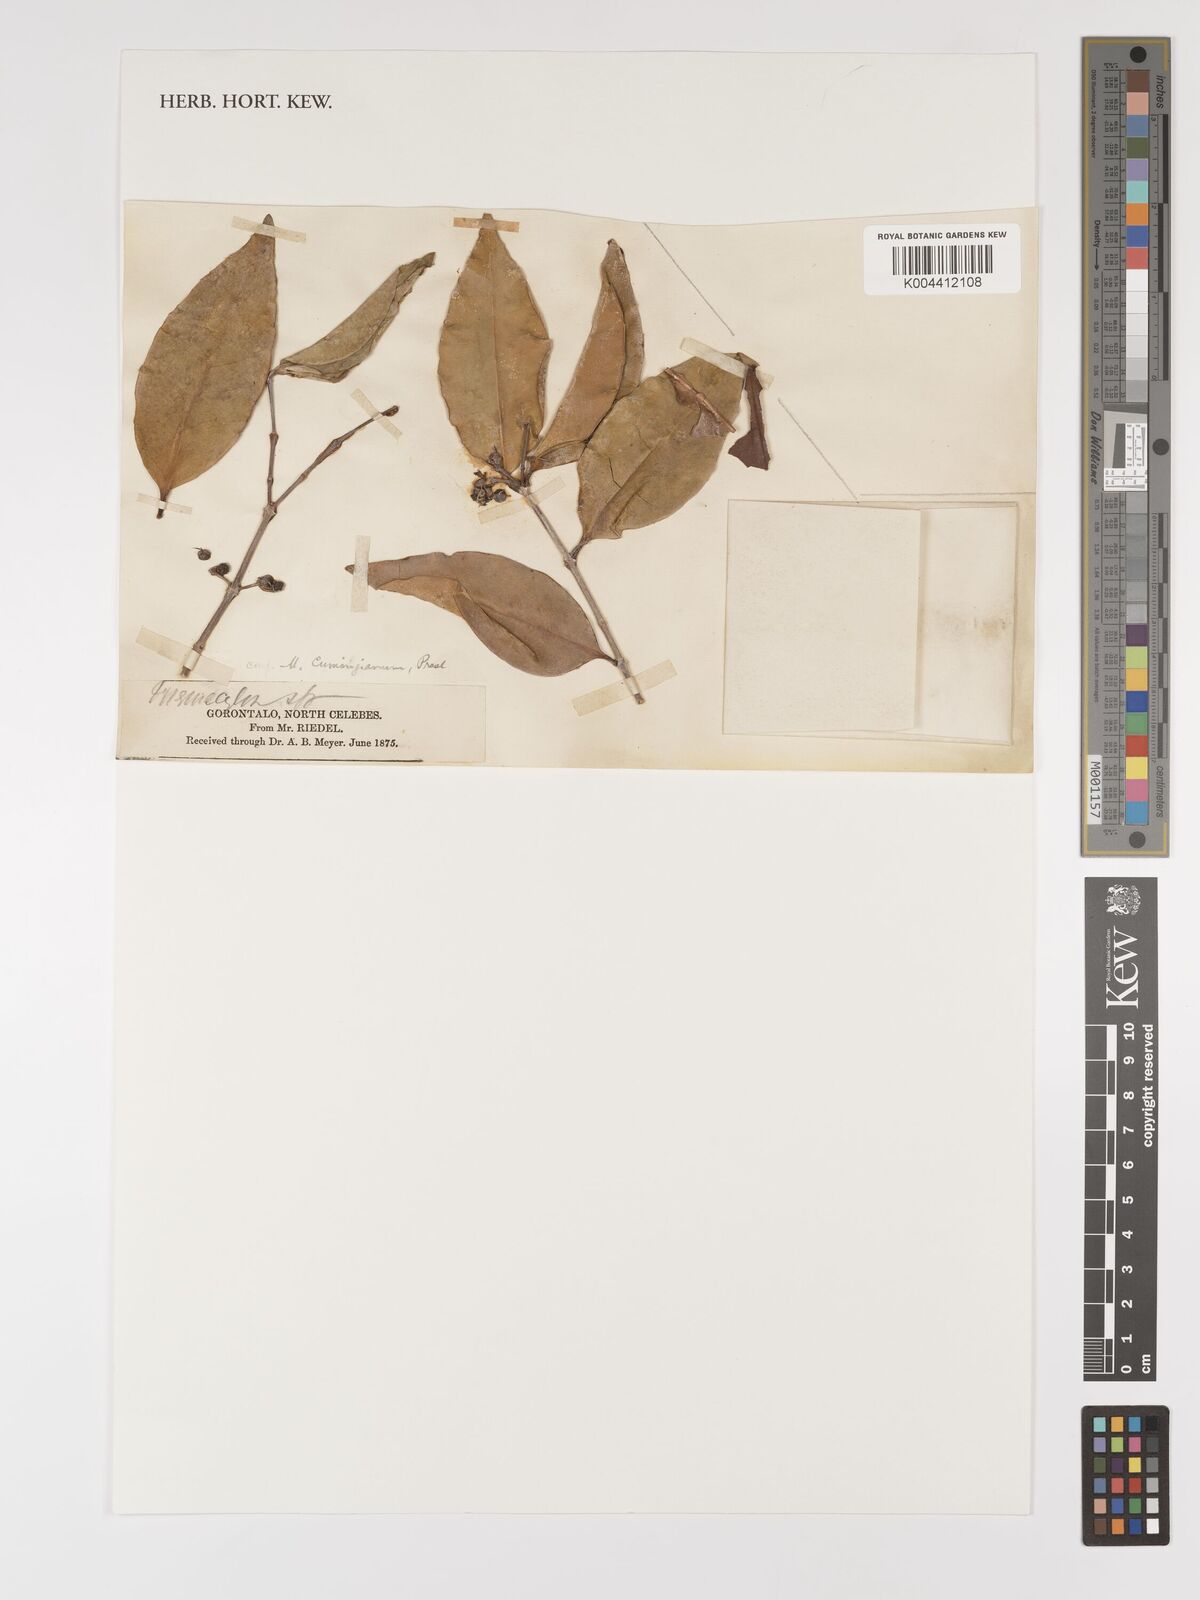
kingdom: Plantae
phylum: Tracheophyta
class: Magnoliopsida
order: Myrtales
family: Melastomataceae
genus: Memecylon
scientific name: Memecylon
